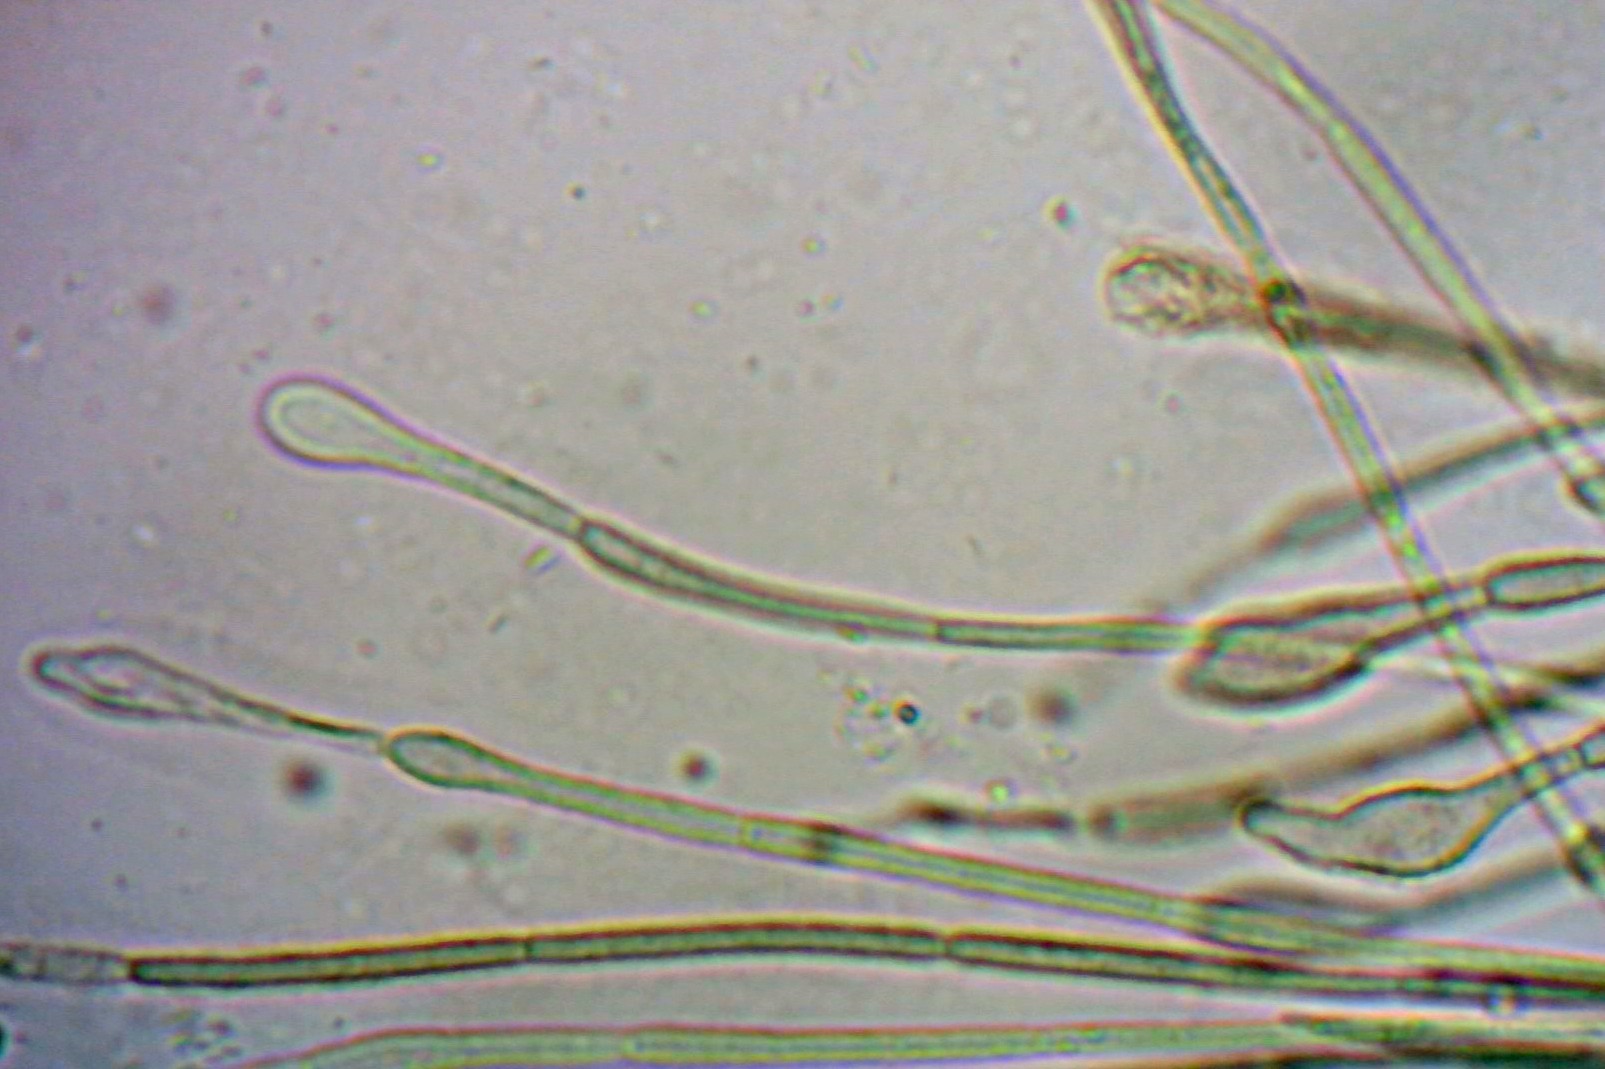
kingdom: Fungi
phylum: Ascomycota
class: Geoglossomycetes
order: Geoglossales
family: Geoglossaceae
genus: Glutinoglossum
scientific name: Glutinoglossum glutinosum
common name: slimet jordtunge
